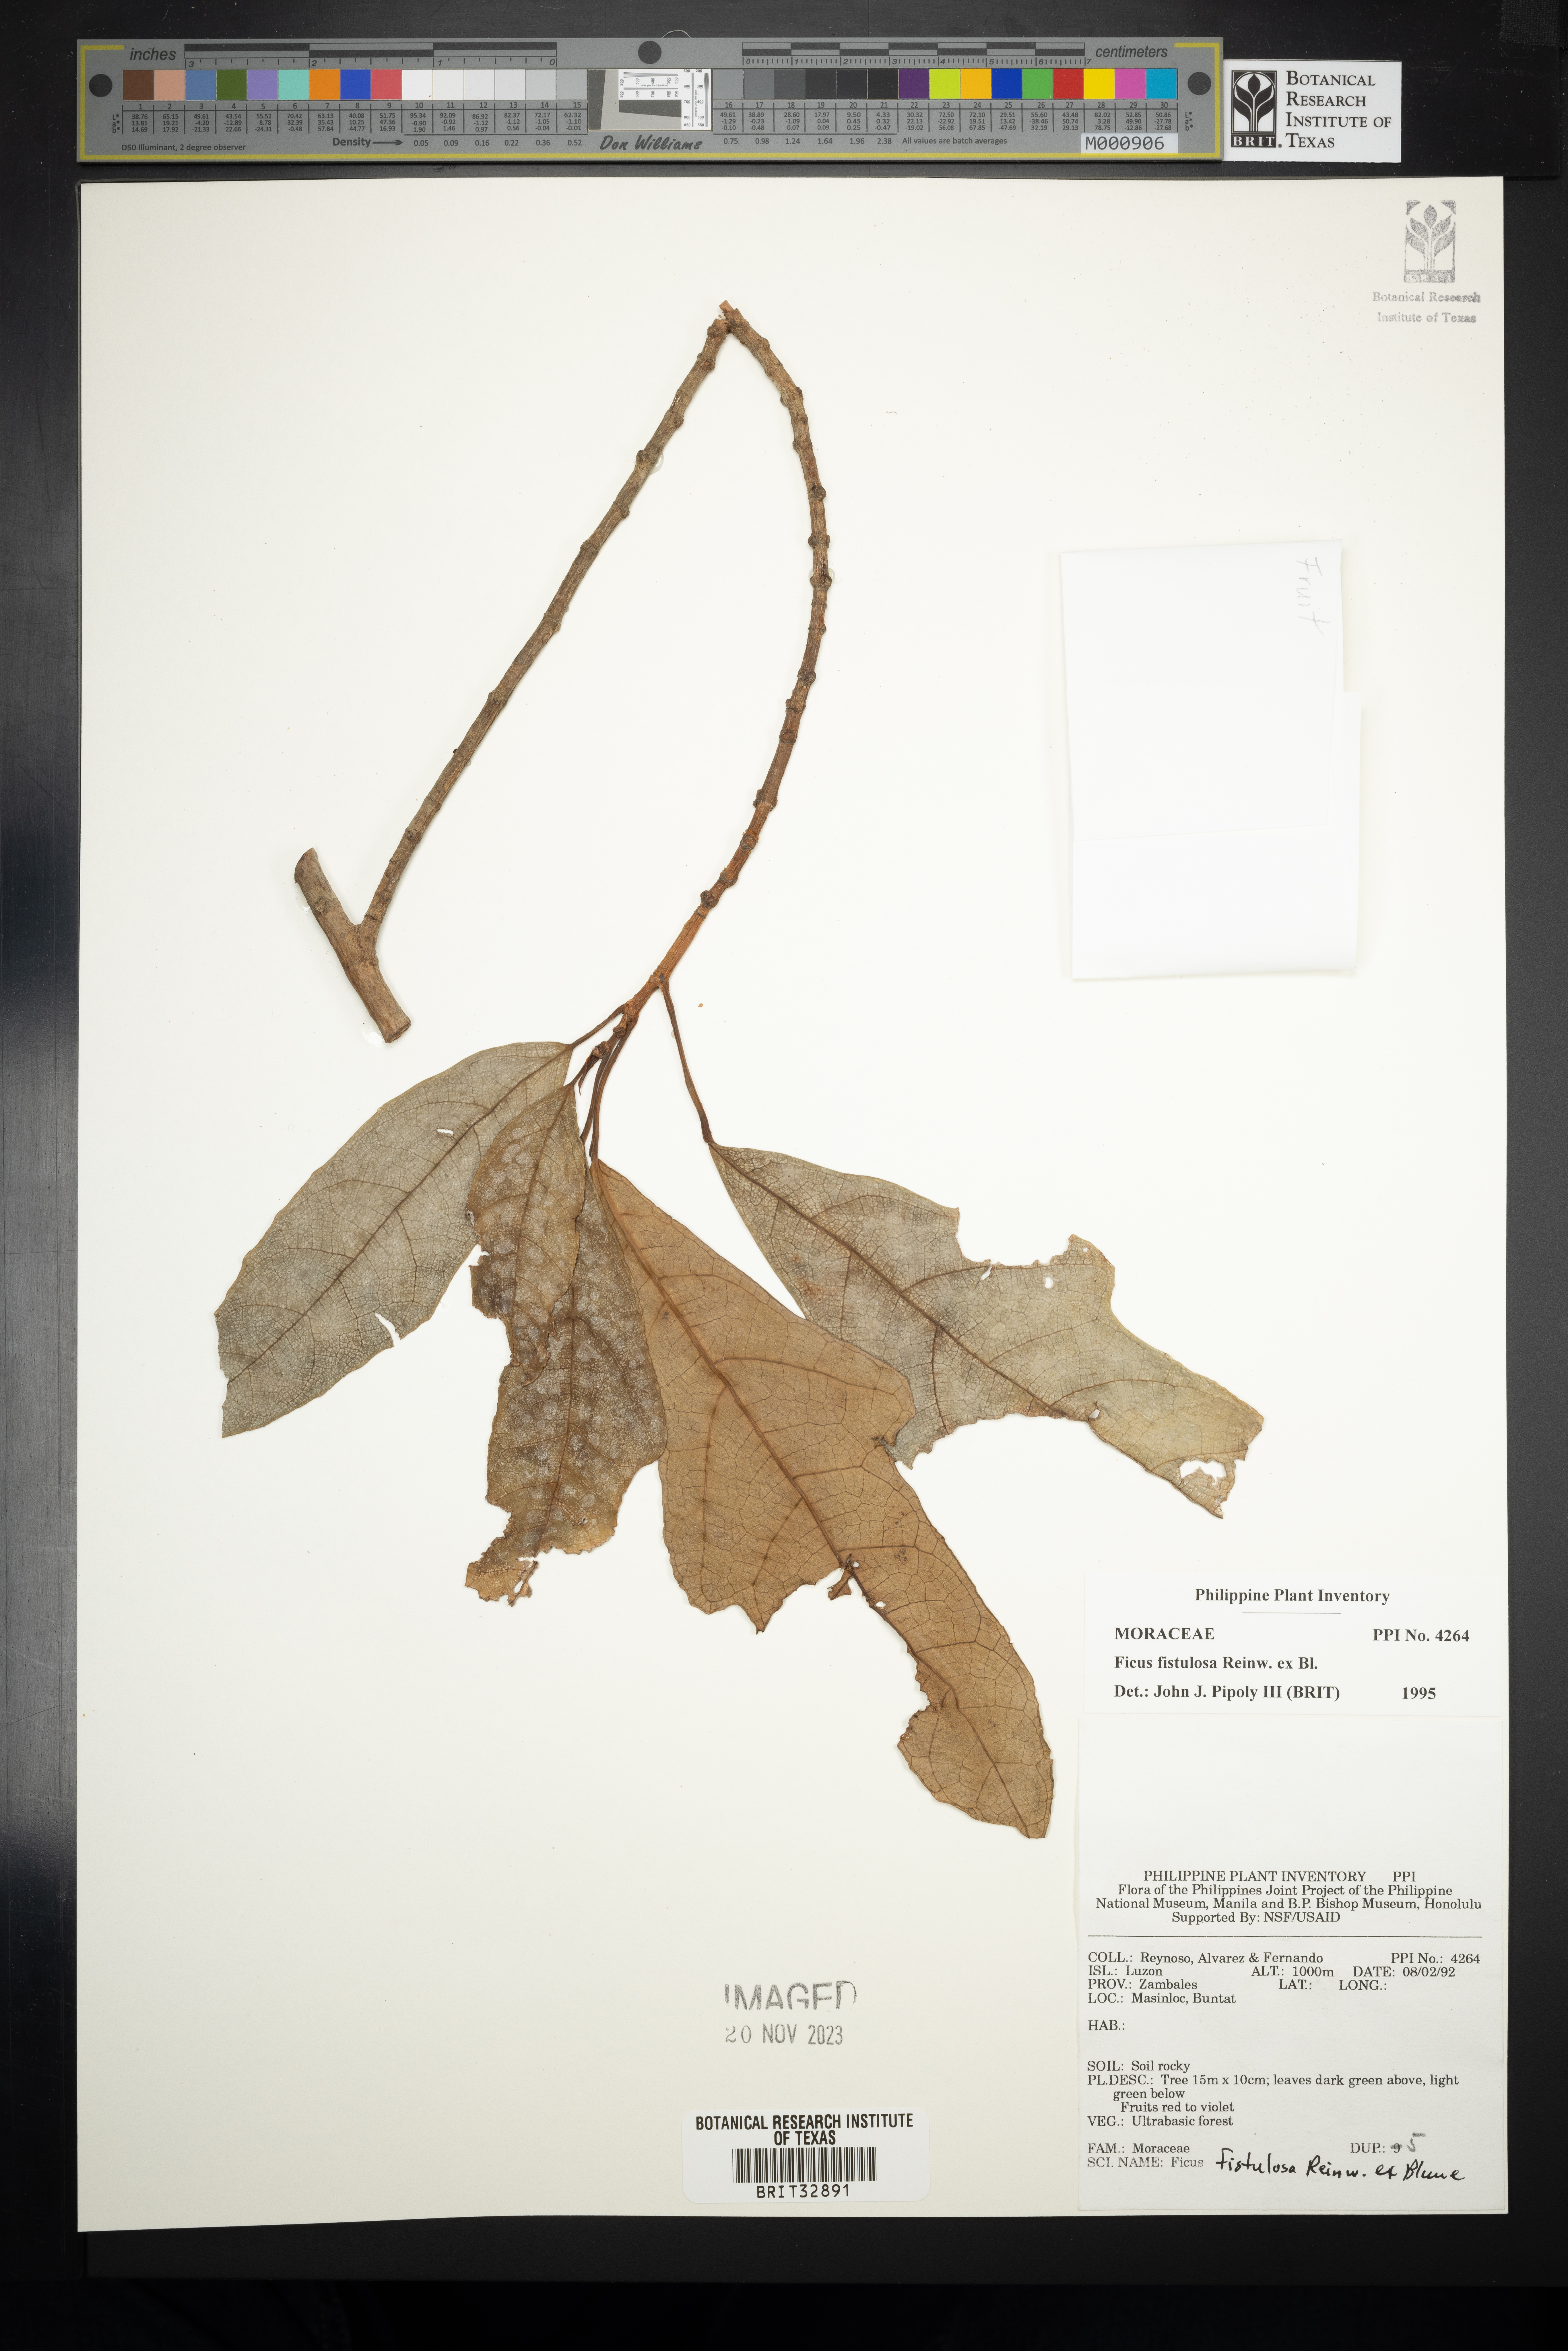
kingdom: Plantae
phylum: Tracheophyta
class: Magnoliopsida
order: Rosales
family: Moraceae
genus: Ficus
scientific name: Ficus fistulosa
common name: Figs
